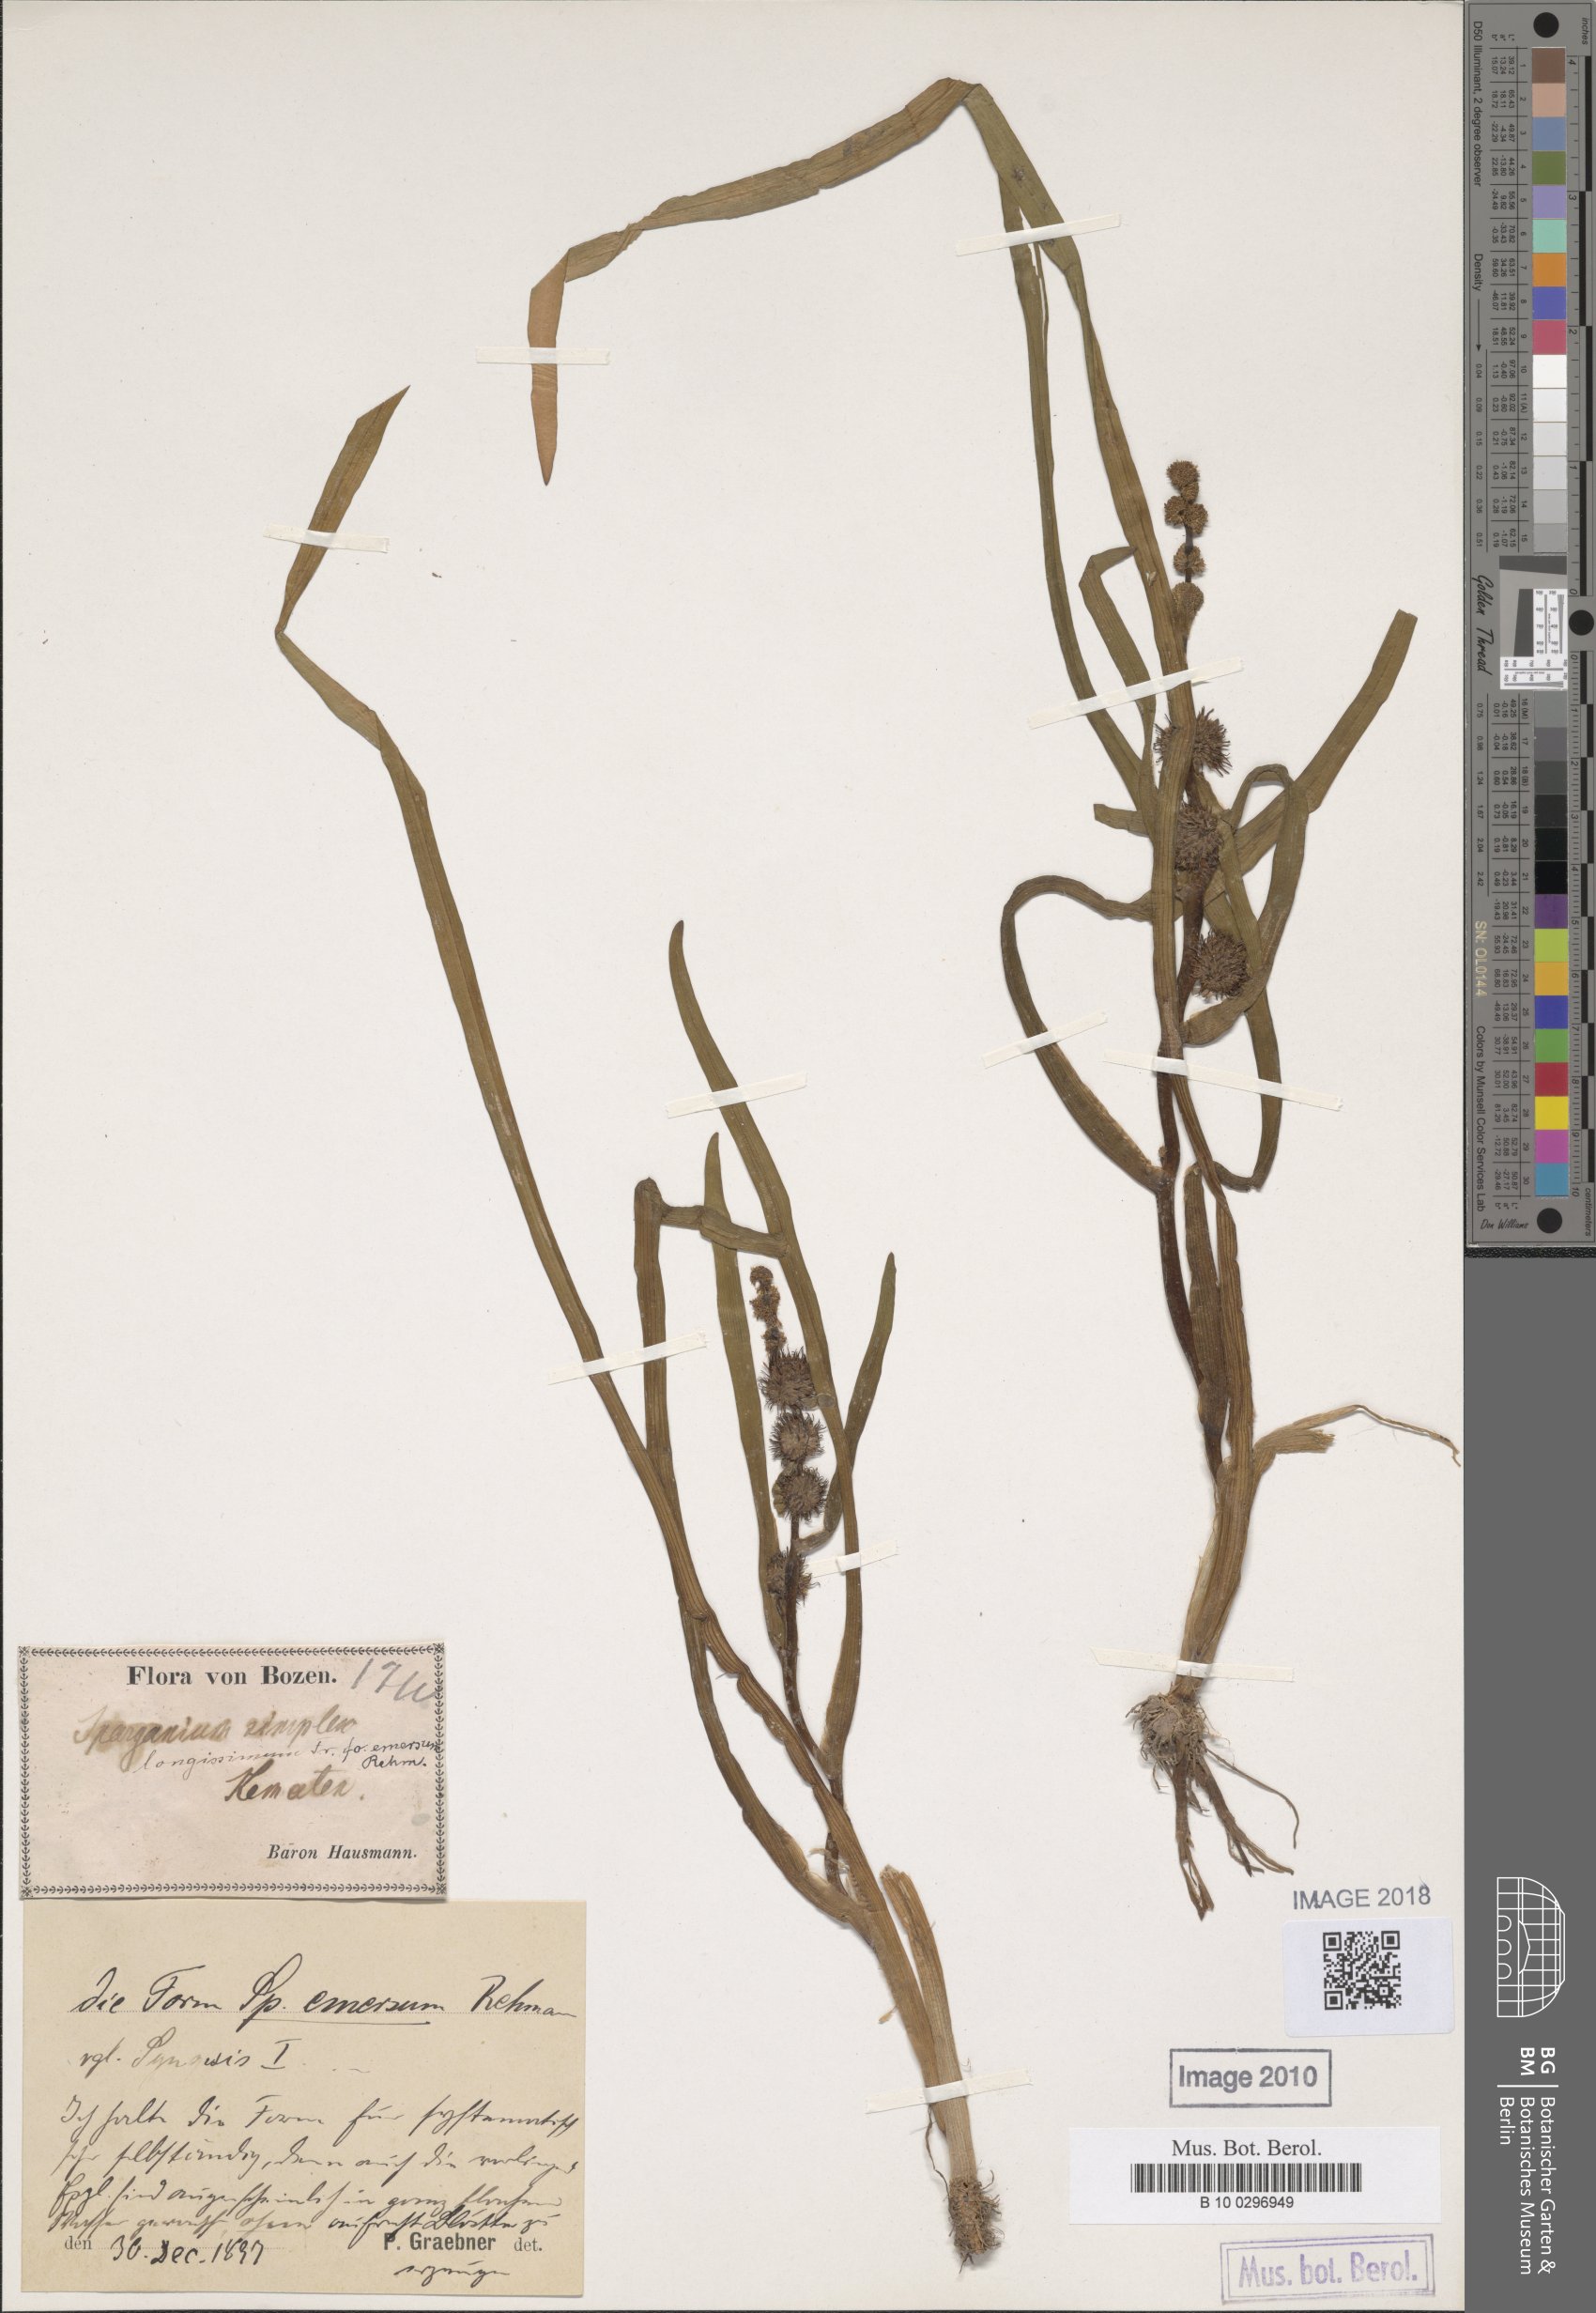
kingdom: Plantae
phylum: Tracheophyta
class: Liliopsida
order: Poales
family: Typhaceae
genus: Sparganium
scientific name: Sparganium emersum
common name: Unbranched bur-reed
